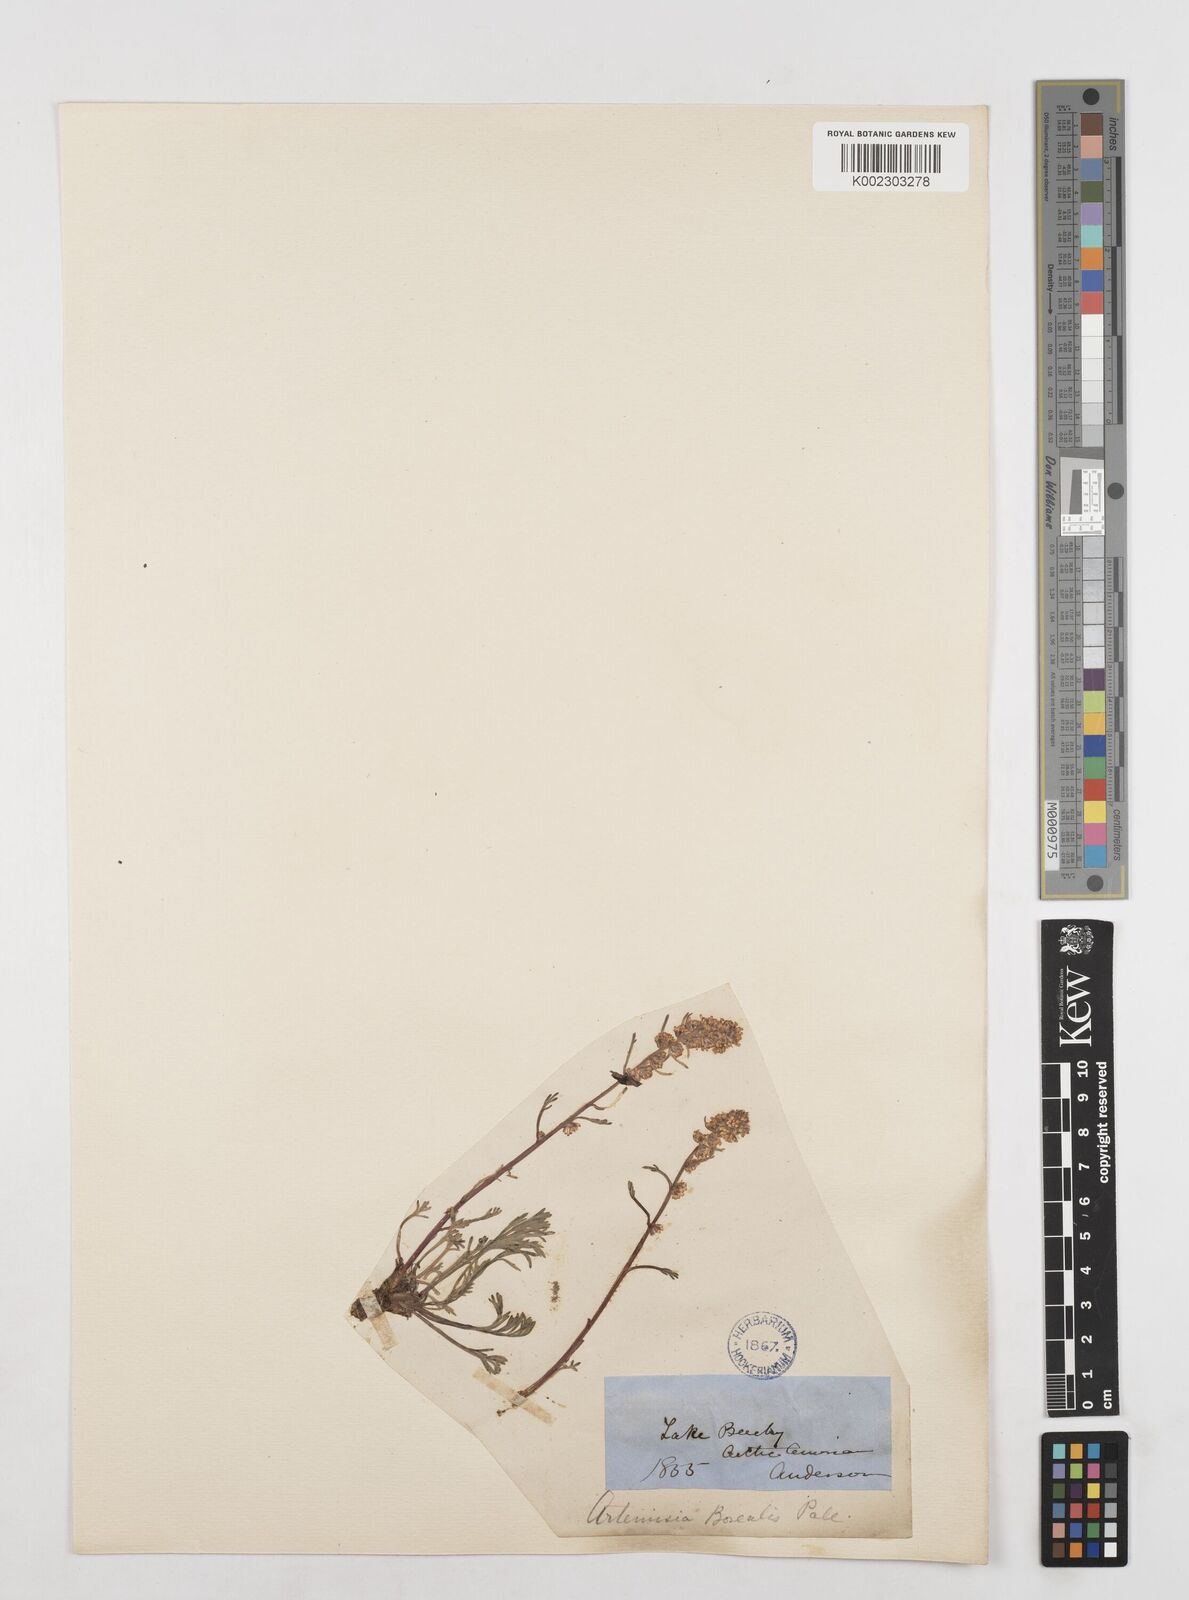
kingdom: Plantae
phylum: Tracheophyta
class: Magnoliopsida
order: Asterales
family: Asteraceae
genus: Artemisia
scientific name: Artemisia borealis
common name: Boreal sage
